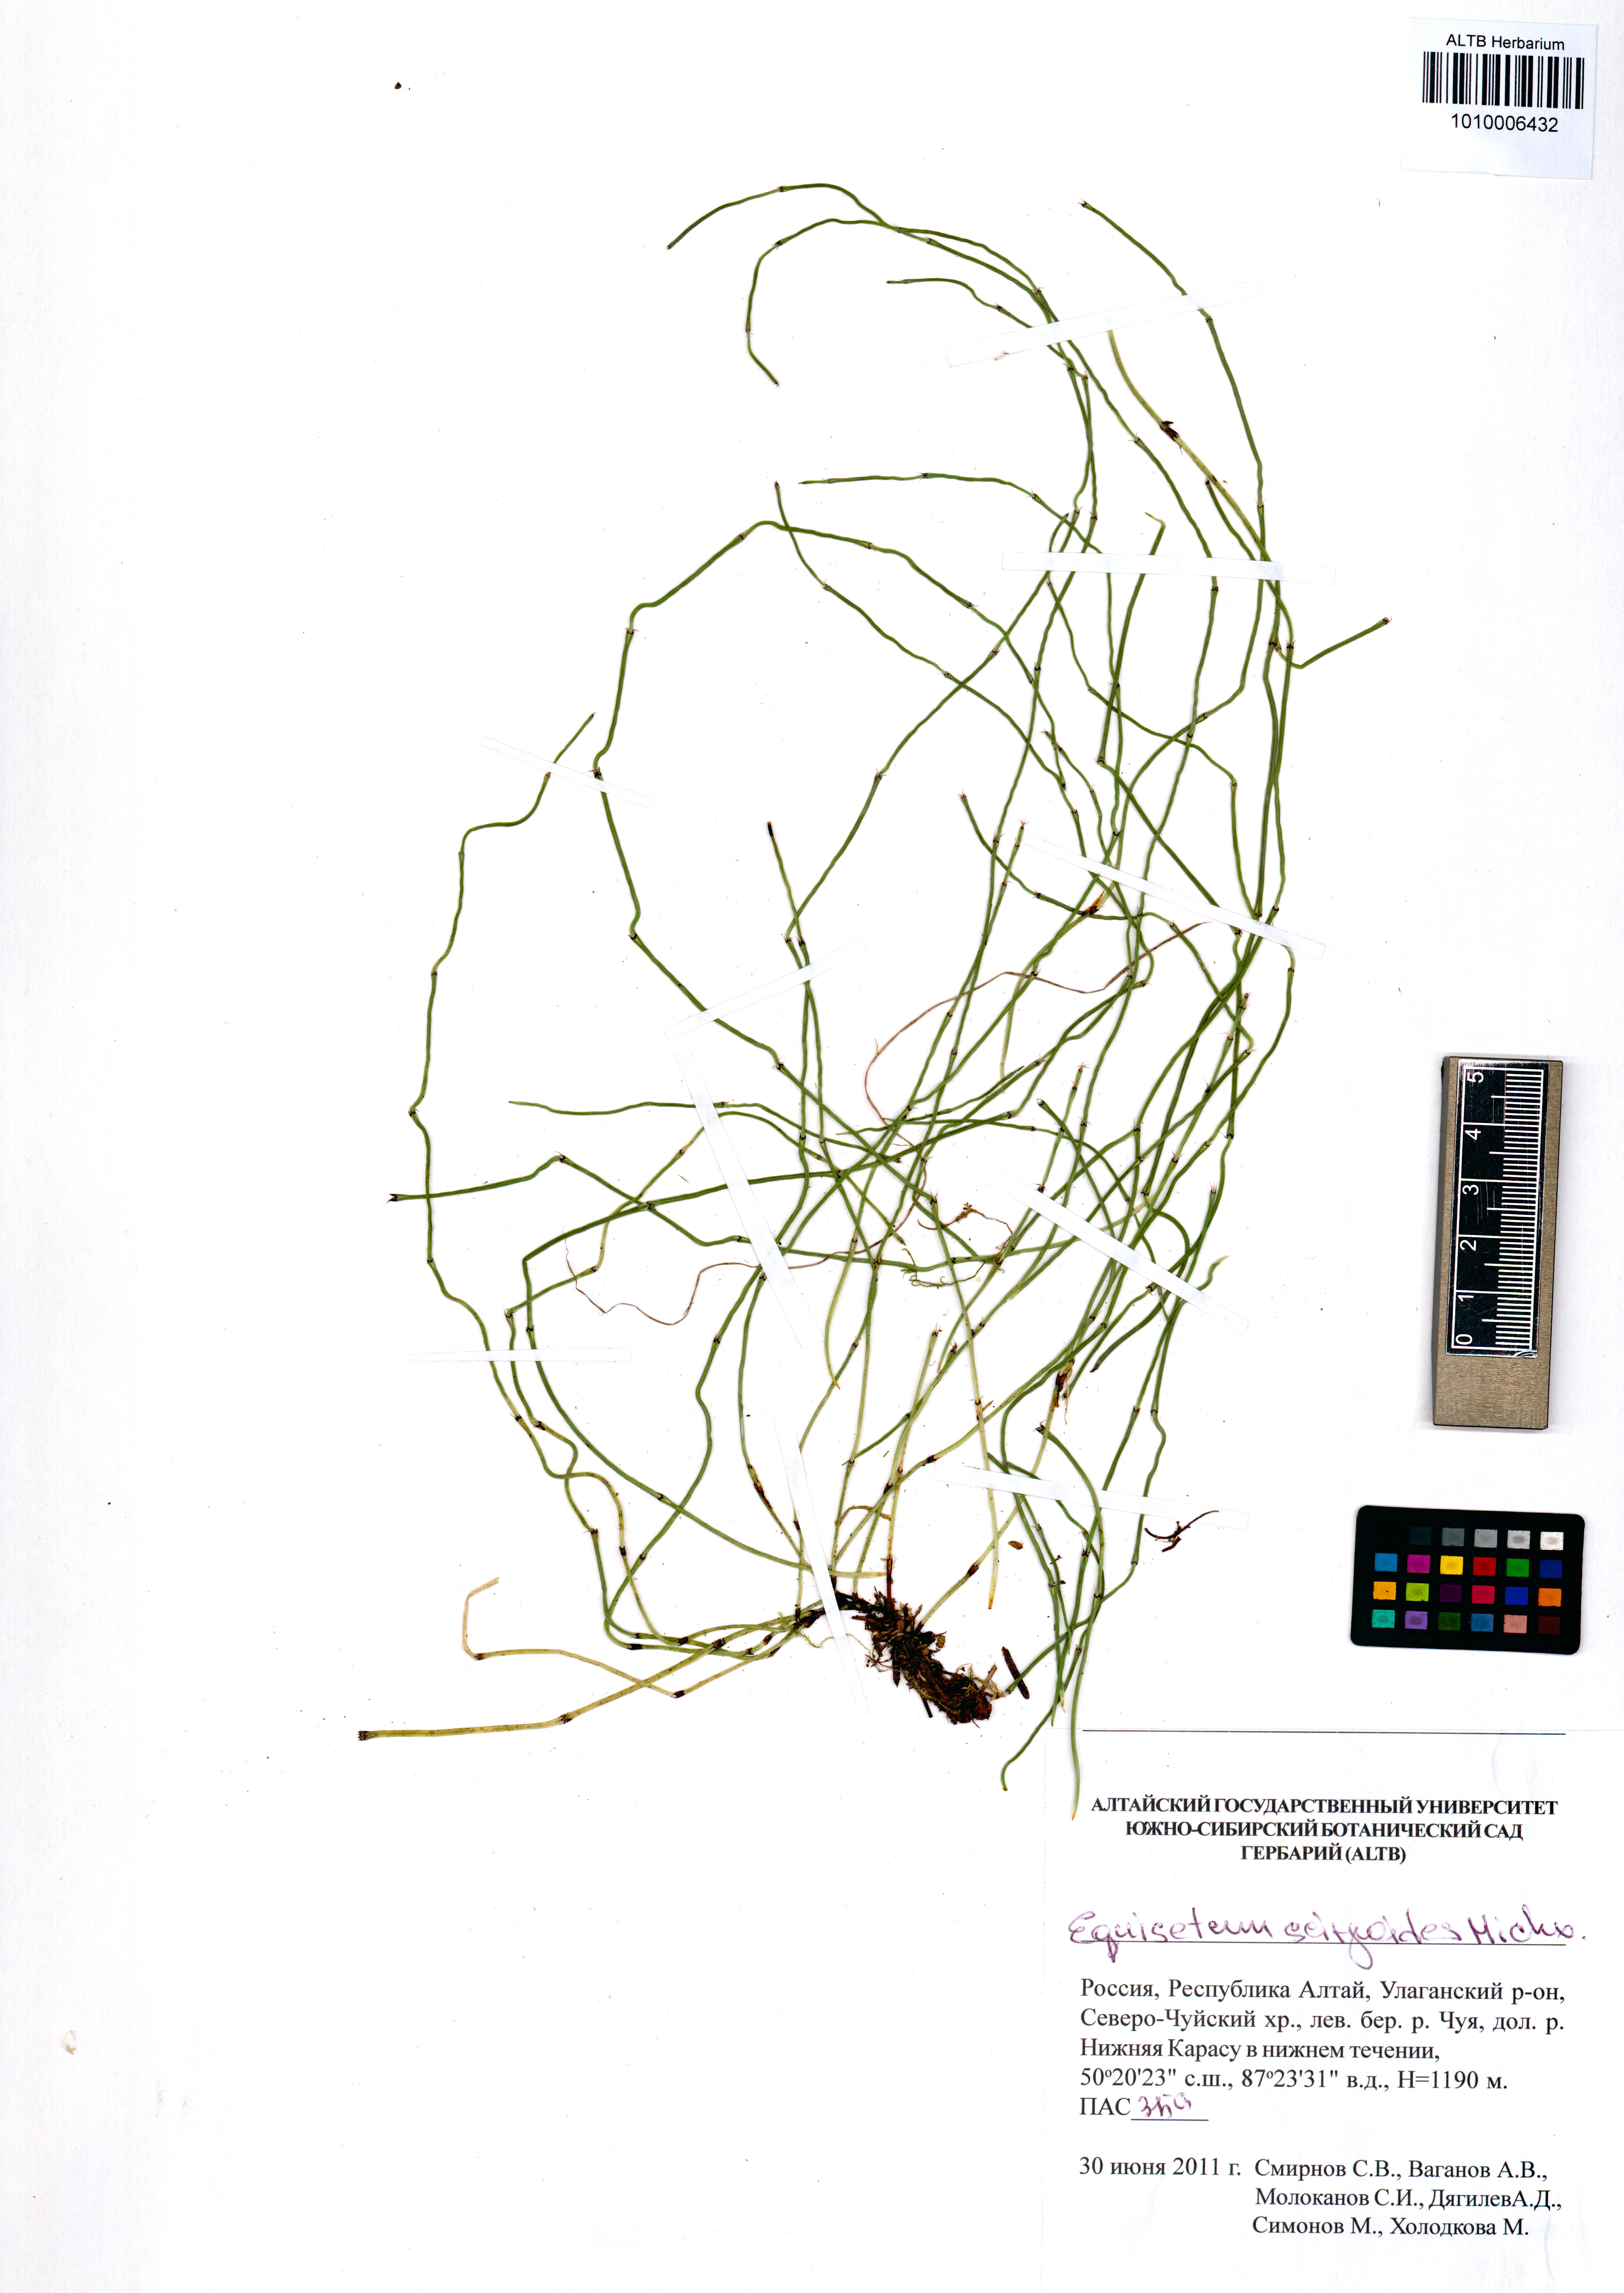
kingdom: Plantae
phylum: Tracheophyta
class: Polypodiopsida
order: Equisetales
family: Equisetaceae
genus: Equisetum
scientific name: Equisetum scirpoides
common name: Delicate horsetail
